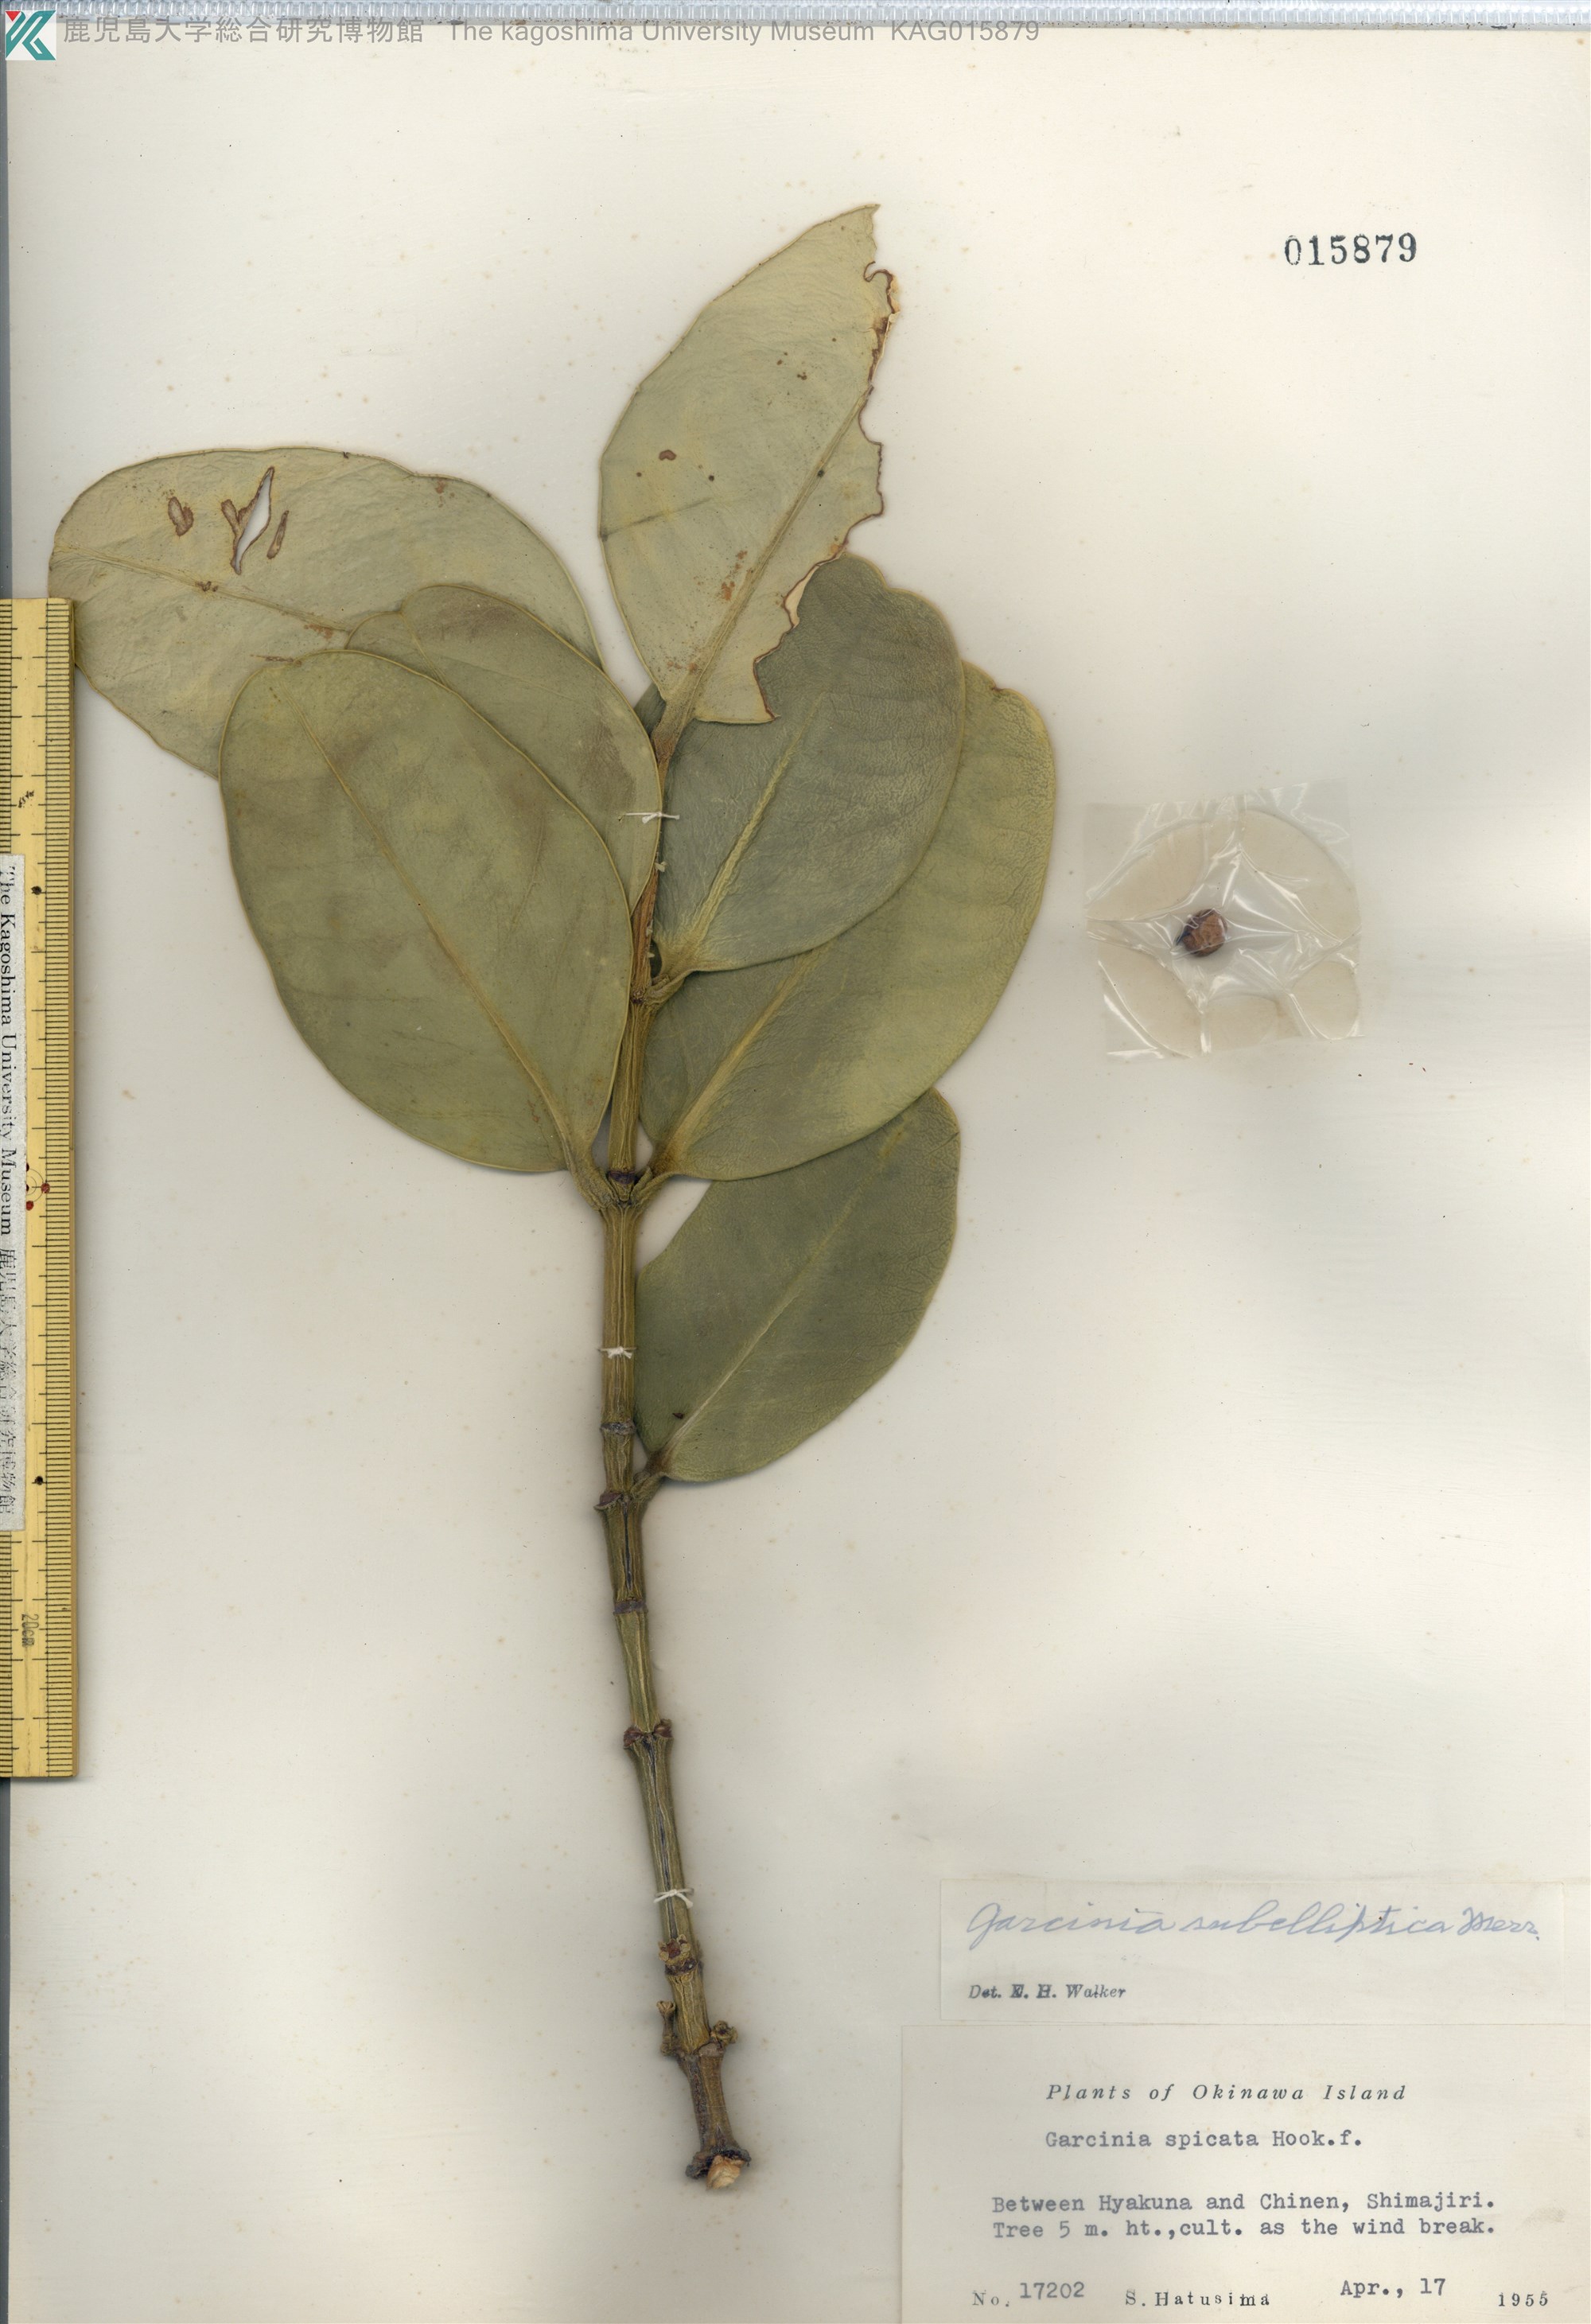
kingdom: Plantae
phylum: Tracheophyta
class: Magnoliopsida
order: Malpighiales
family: Clusiaceae
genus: Garcinia
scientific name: Garcinia subelliptica
